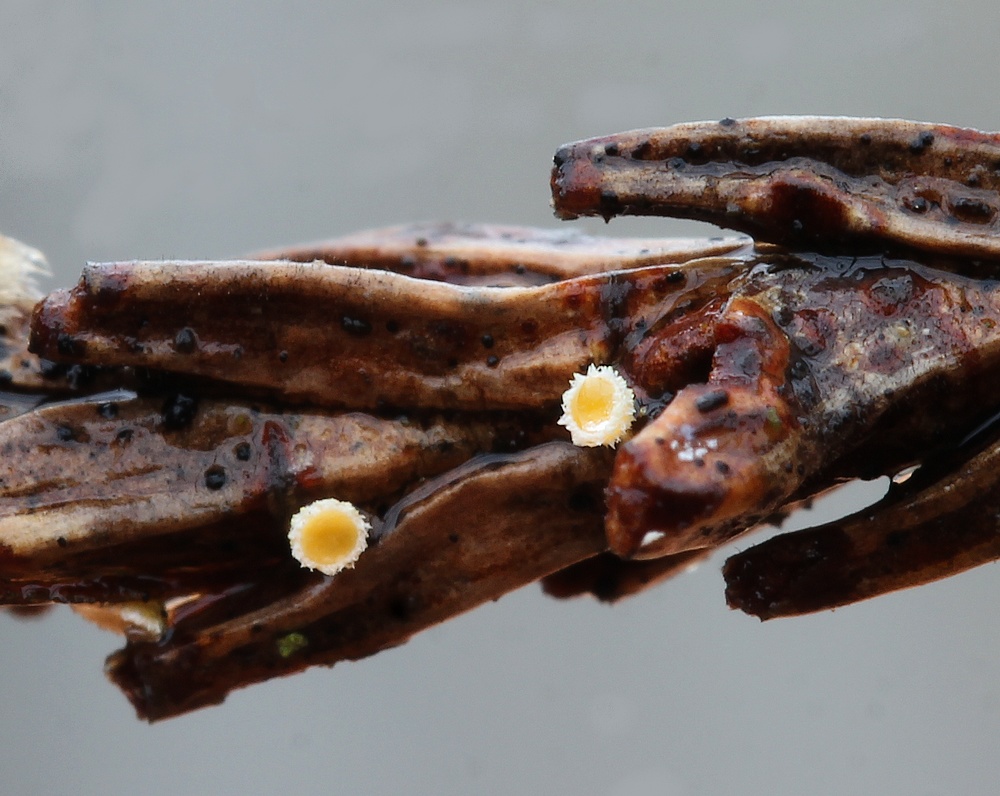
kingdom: Fungi
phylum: Ascomycota
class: Leotiomycetes
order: Helotiales
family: Lachnaceae
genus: Lachnellula
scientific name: Lachnellula subtilissima
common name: gran-frynseskive
